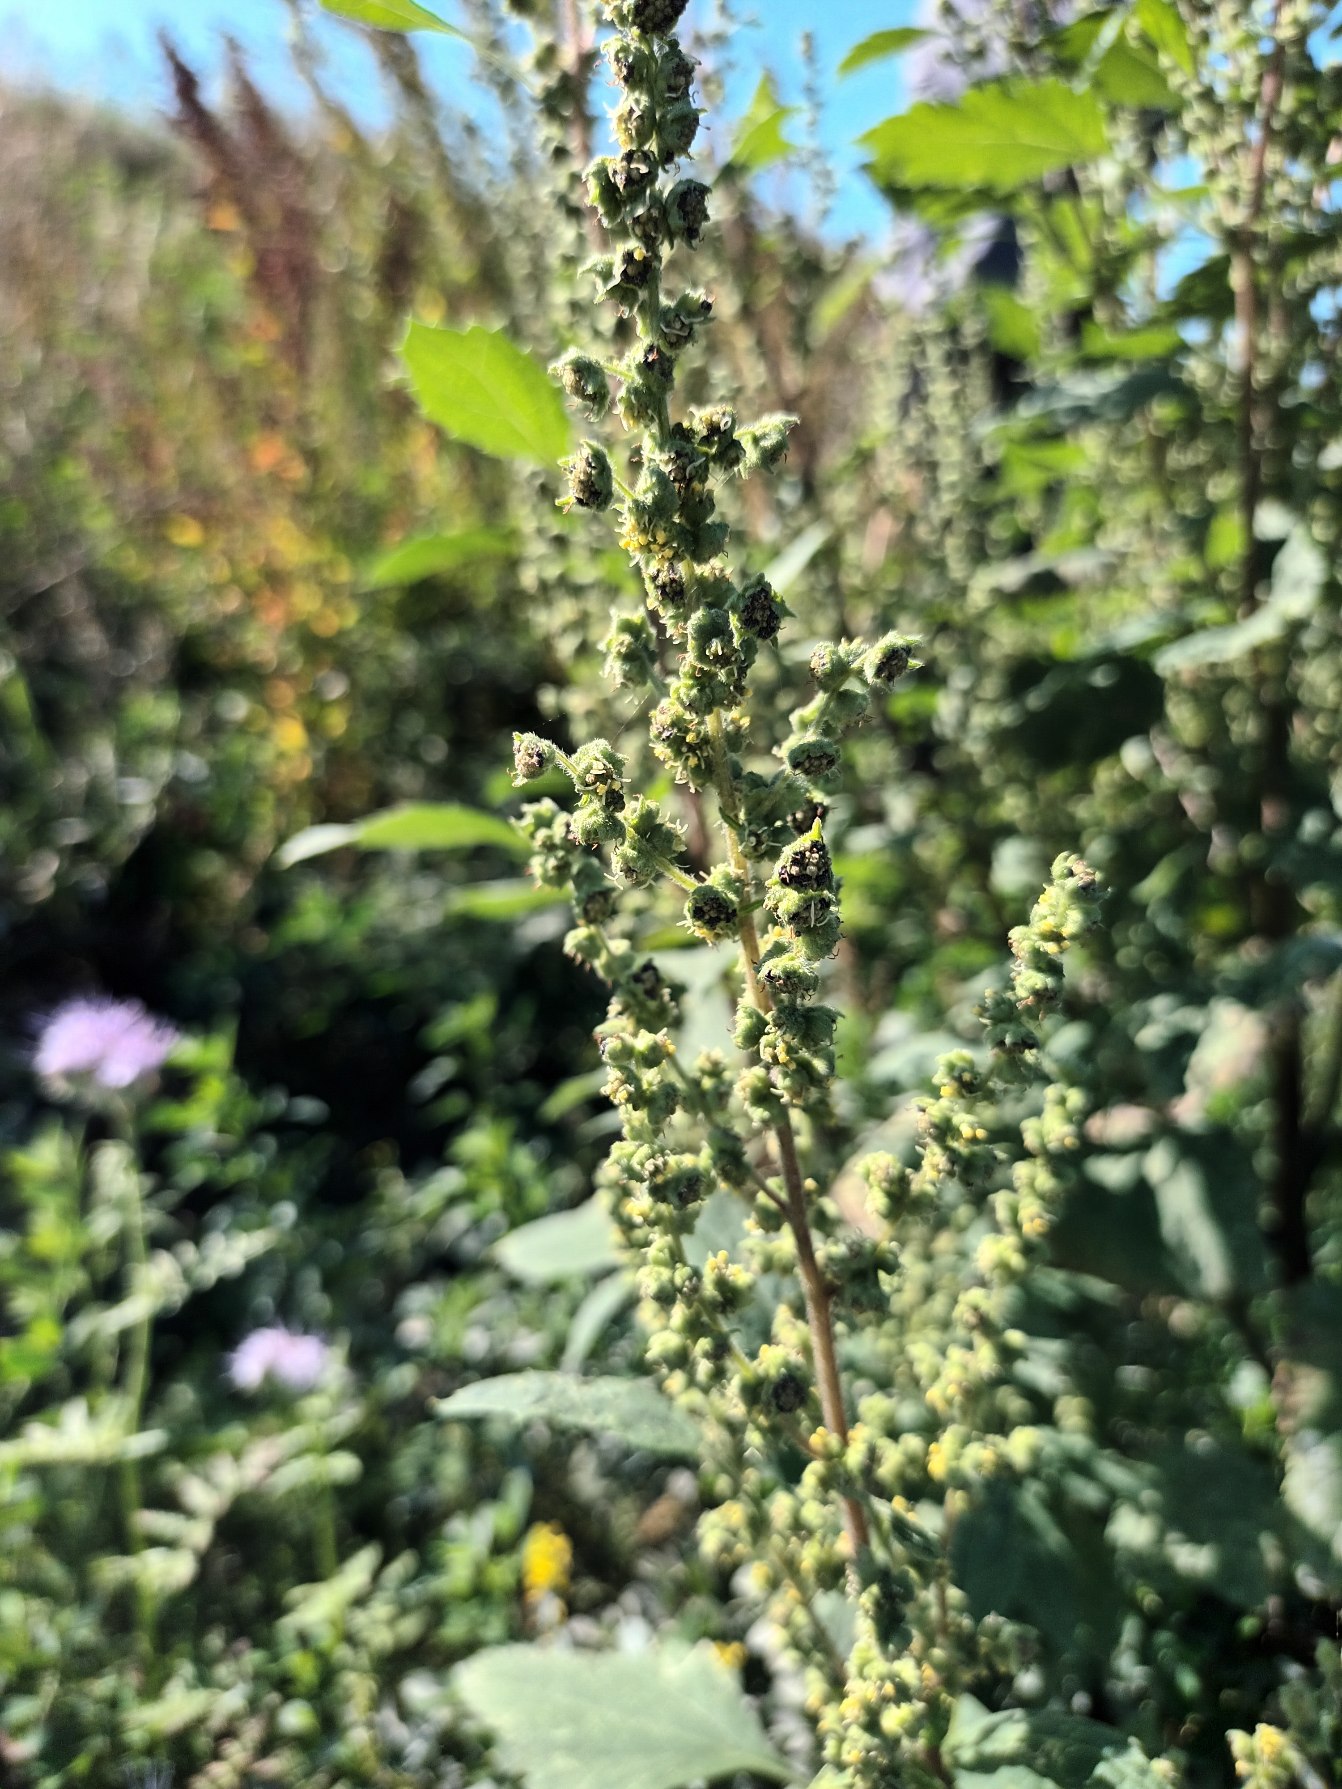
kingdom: Plantae
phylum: Tracheophyta
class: Magnoliopsida
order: Asterales
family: Asteraceae
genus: Cyclachaena
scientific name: Cyclachaena xanthiifolia
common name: Klaseurt
